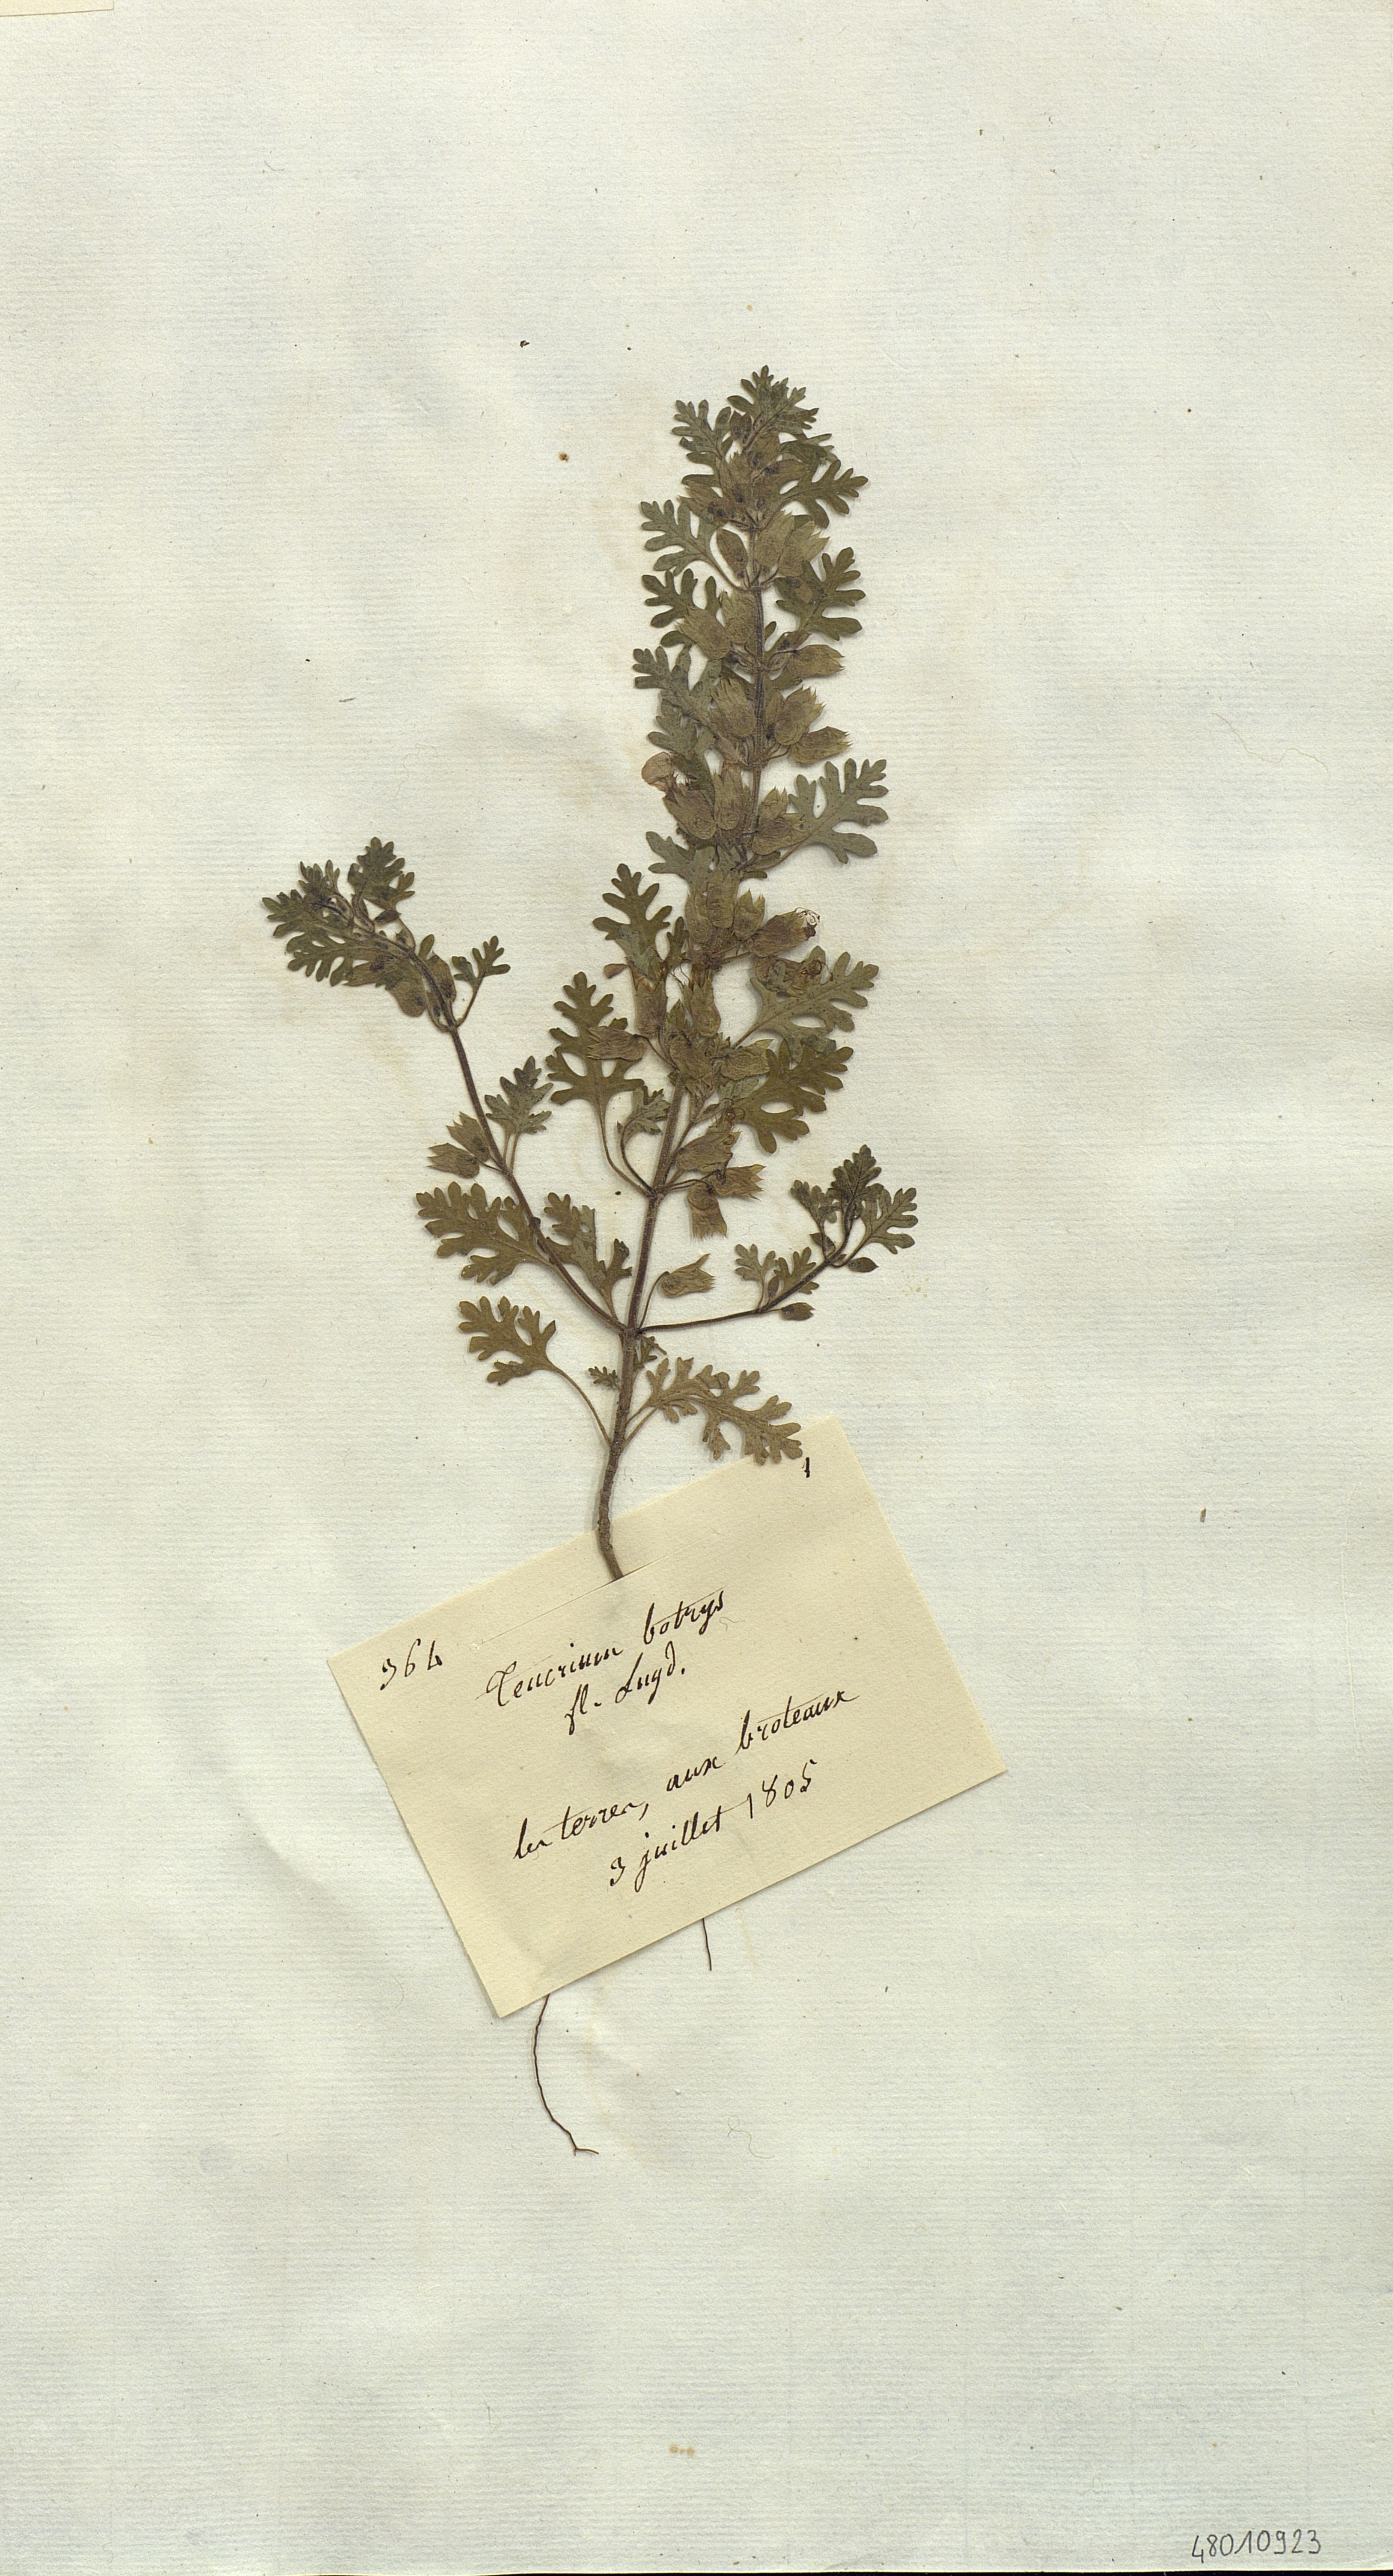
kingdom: Plantae
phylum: Tracheophyta
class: Magnoliopsida
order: Lamiales
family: Lamiaceae
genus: Teucrium
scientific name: Teucrium botrys
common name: Cut-leaved germander
